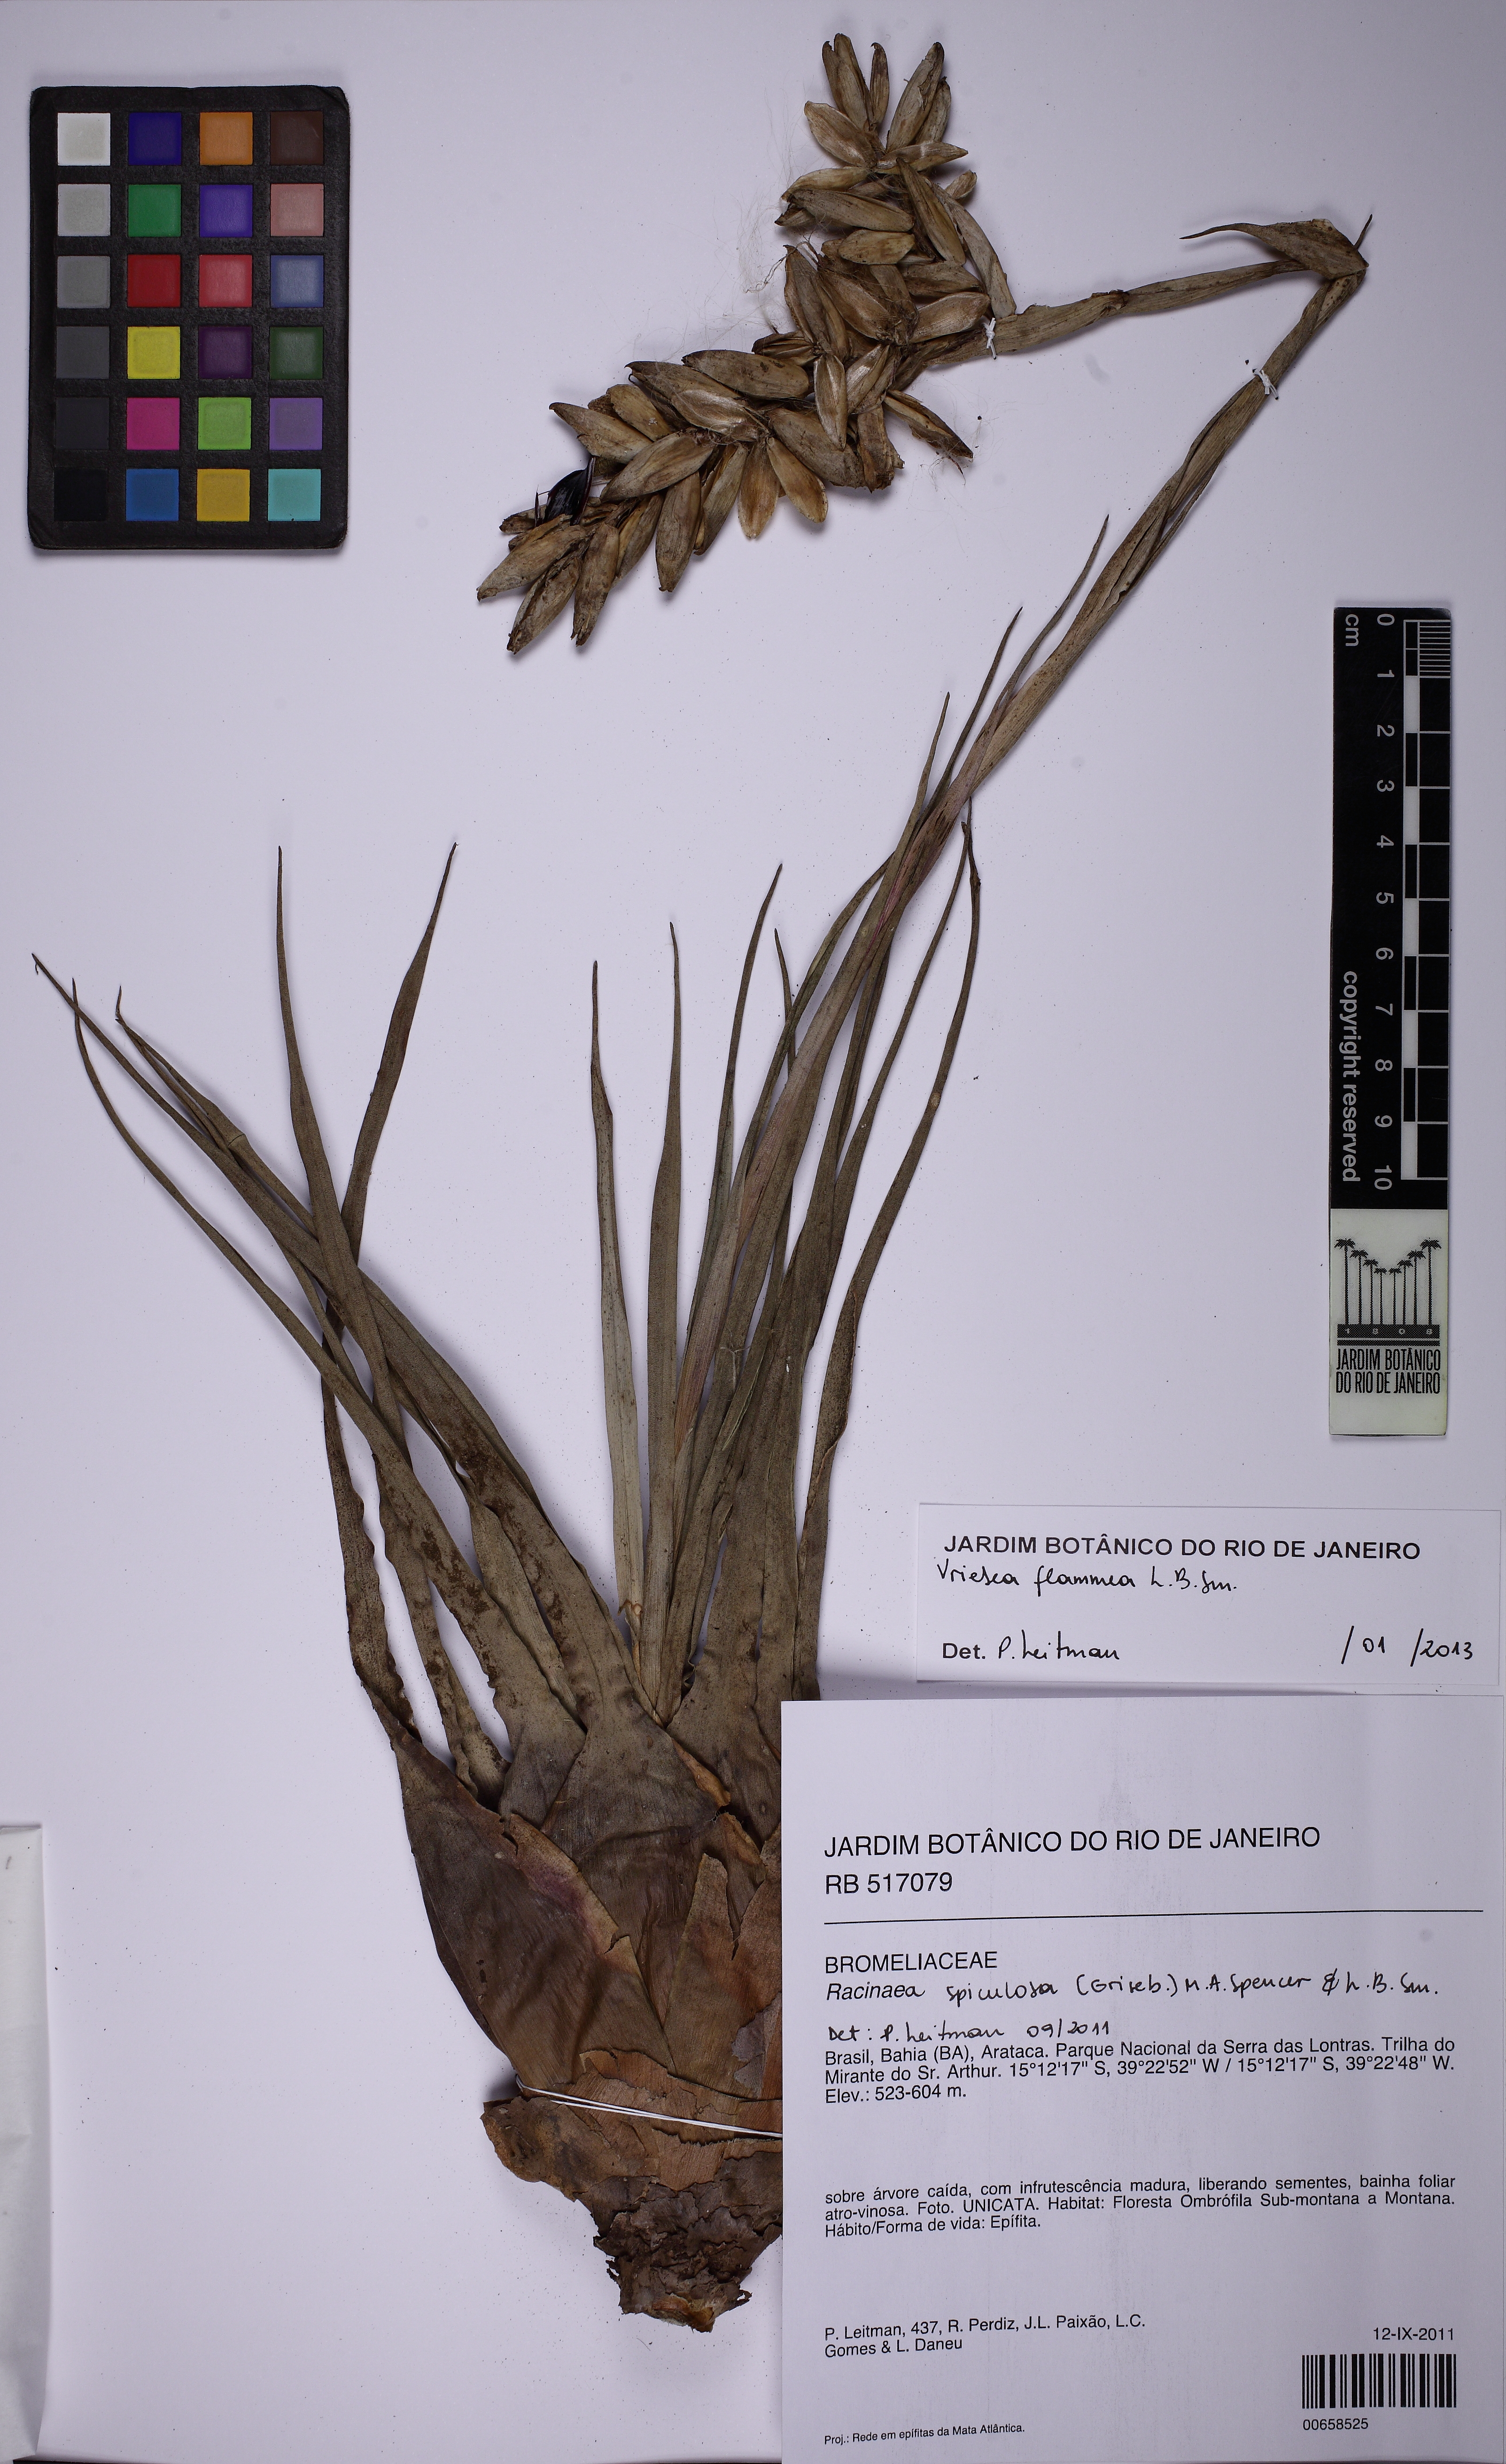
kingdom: Plantae
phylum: Tracheophyta
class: Liliopsida
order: Poales
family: Bromeliaceae
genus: Vriesea
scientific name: Vriesea flammea
